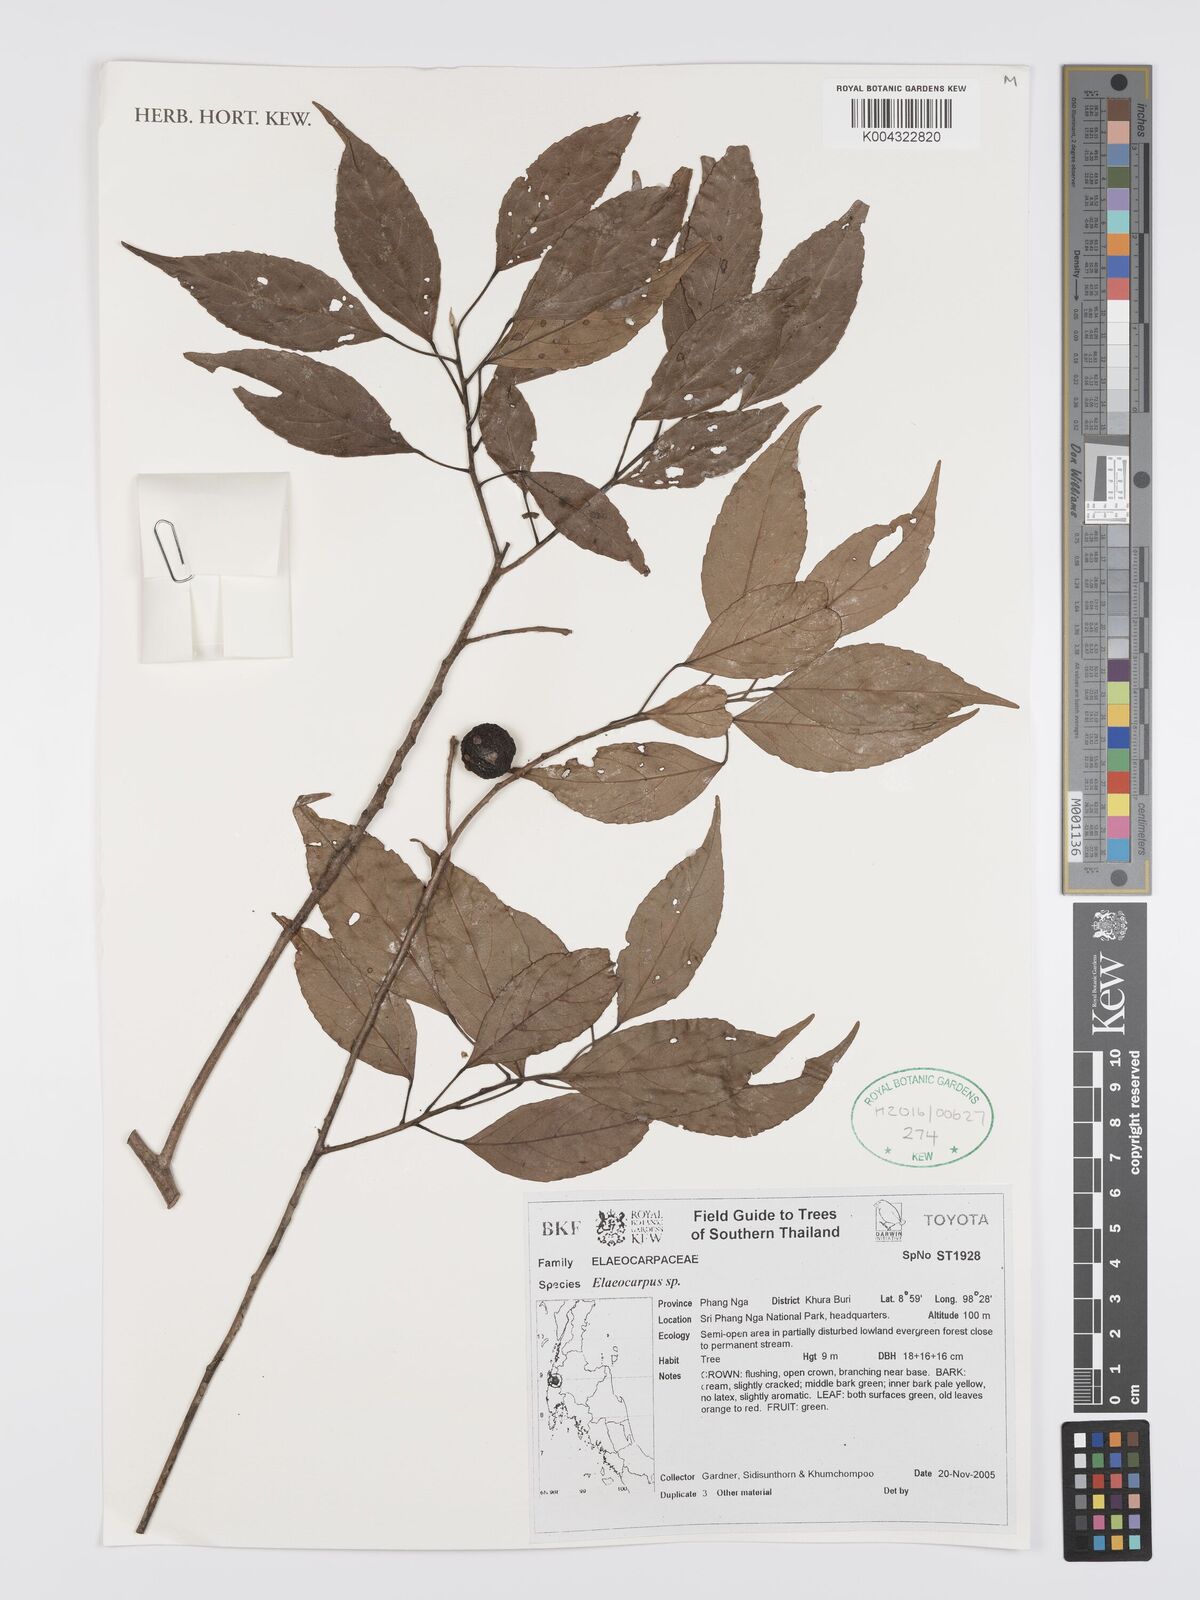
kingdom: Plantae
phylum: Tracheophyta
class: Magnoliopsida
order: Oxalidales
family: Elaeocarpaceae
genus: Elaeocarpus
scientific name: Elaeocarpus
